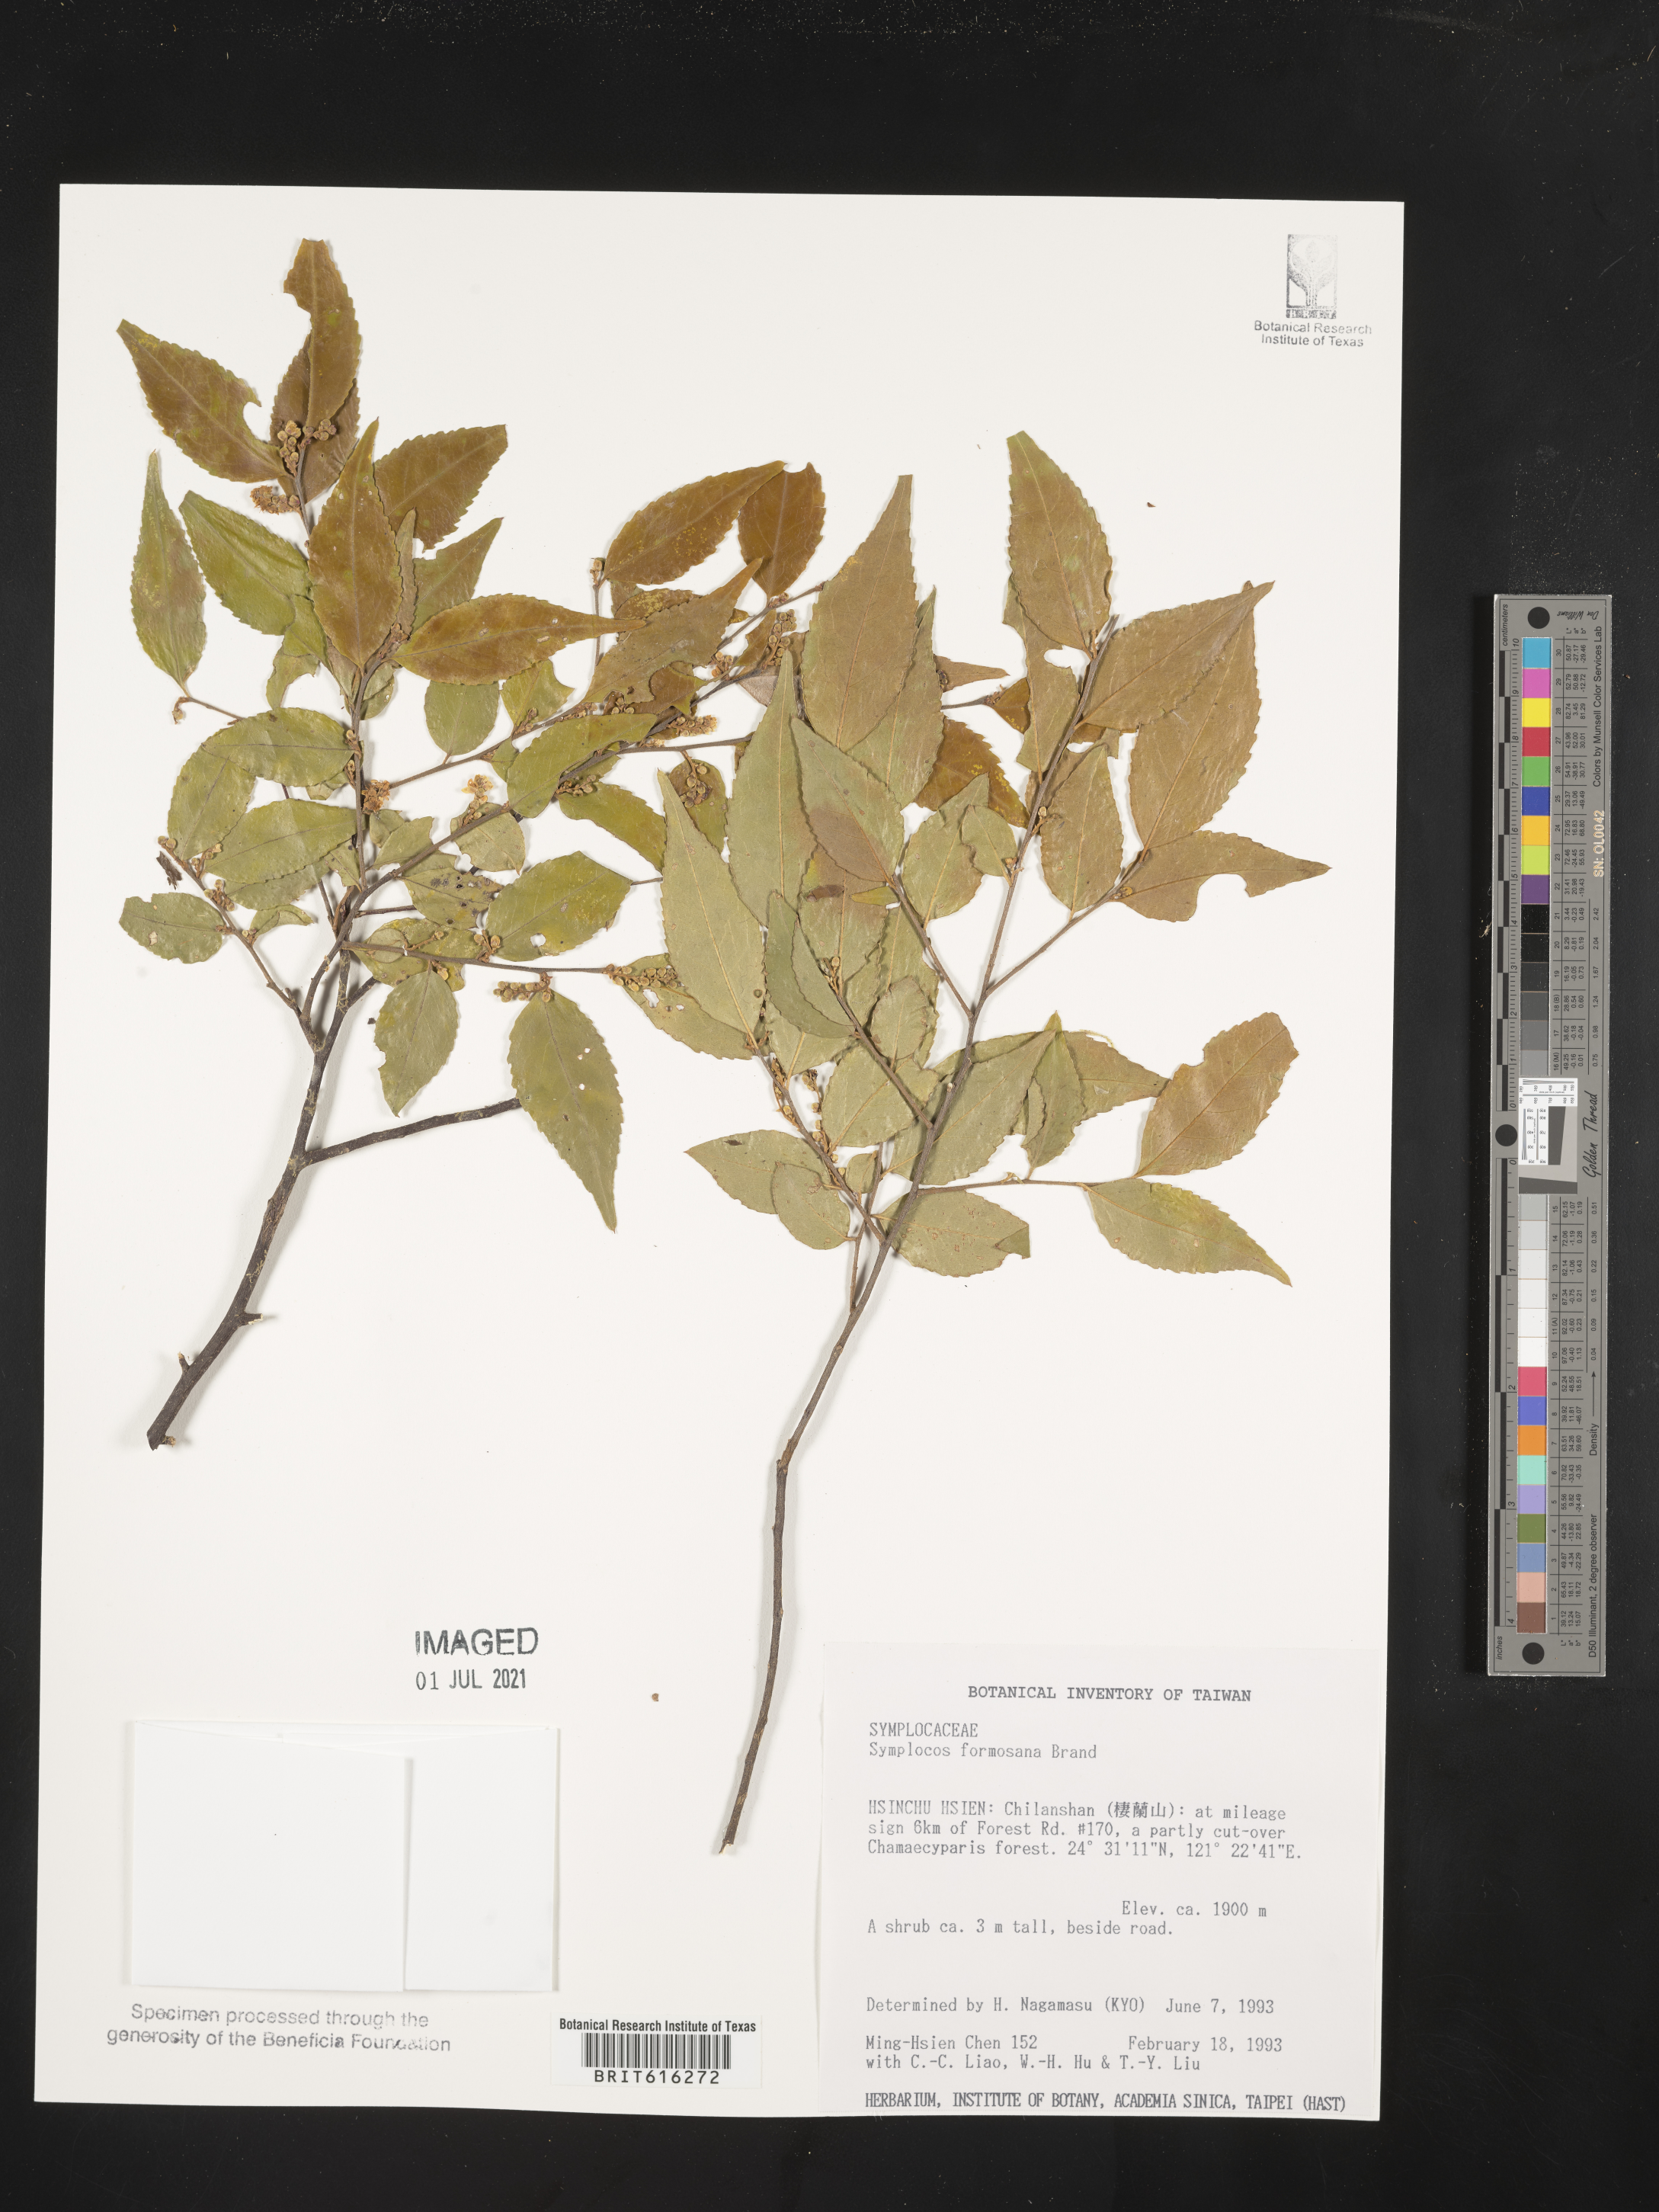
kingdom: Plantae
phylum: Tracheophyta
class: Magnoliopsida
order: Ericales
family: Symplocaceae
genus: Symplocos
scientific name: Symplocos lancifolia
